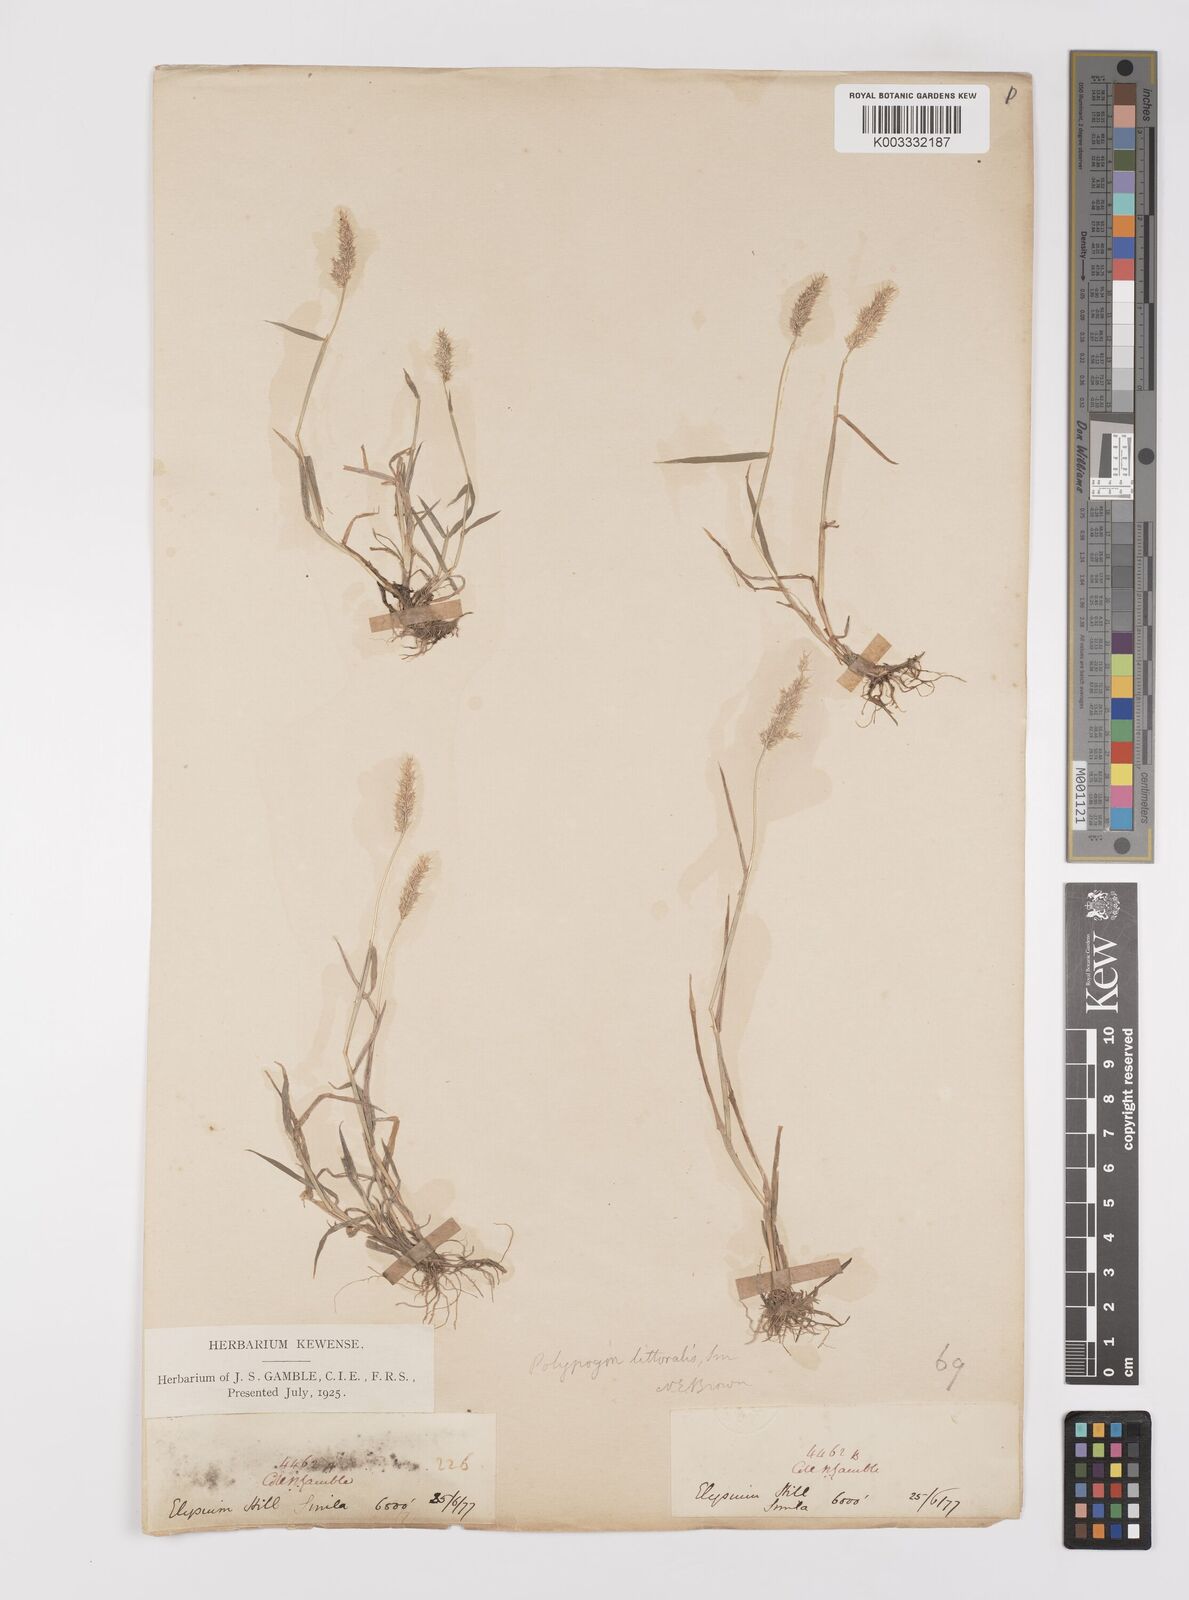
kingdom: Plantae
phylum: Tracheophyta
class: Liliopsida
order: Poales
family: Poaceae
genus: Polypogon
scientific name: Polypogon fugax
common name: Asia minor bluegrass
